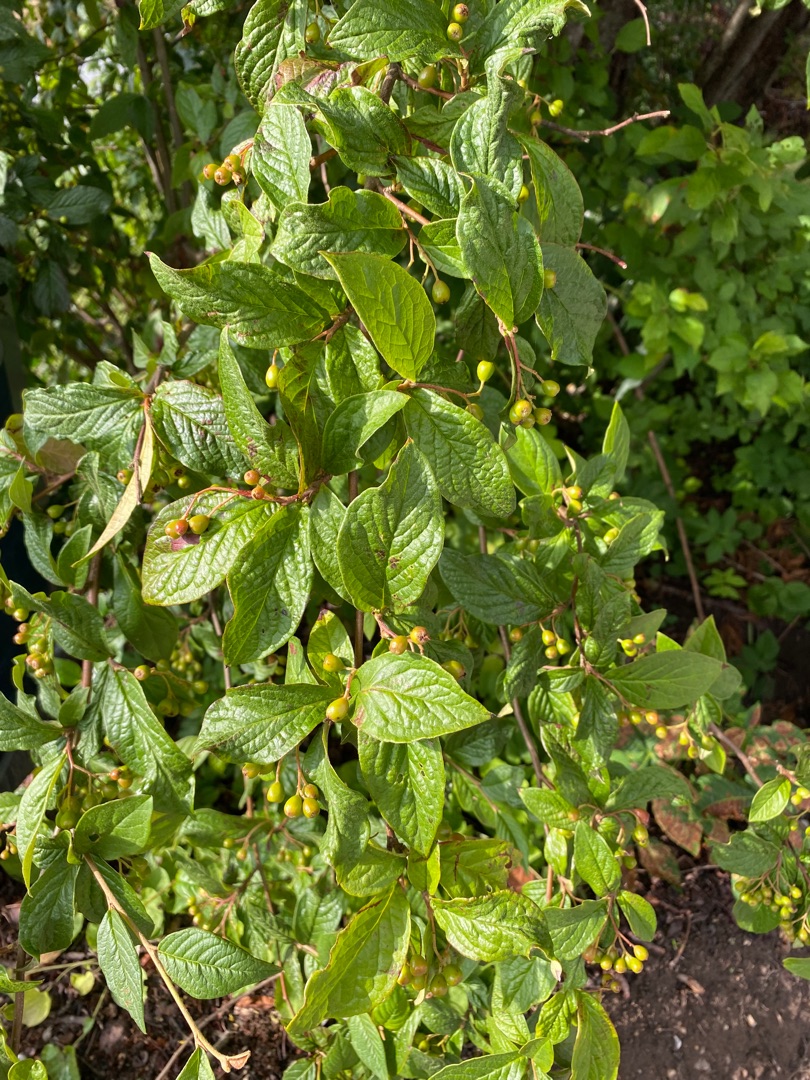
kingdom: Plantae
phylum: Tracheophyta
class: Magnoliopsida
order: Rosales
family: Rosaceae
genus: Cotoneaster
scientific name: Cotoneaster bullatus
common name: Storbladet dværgmispel
